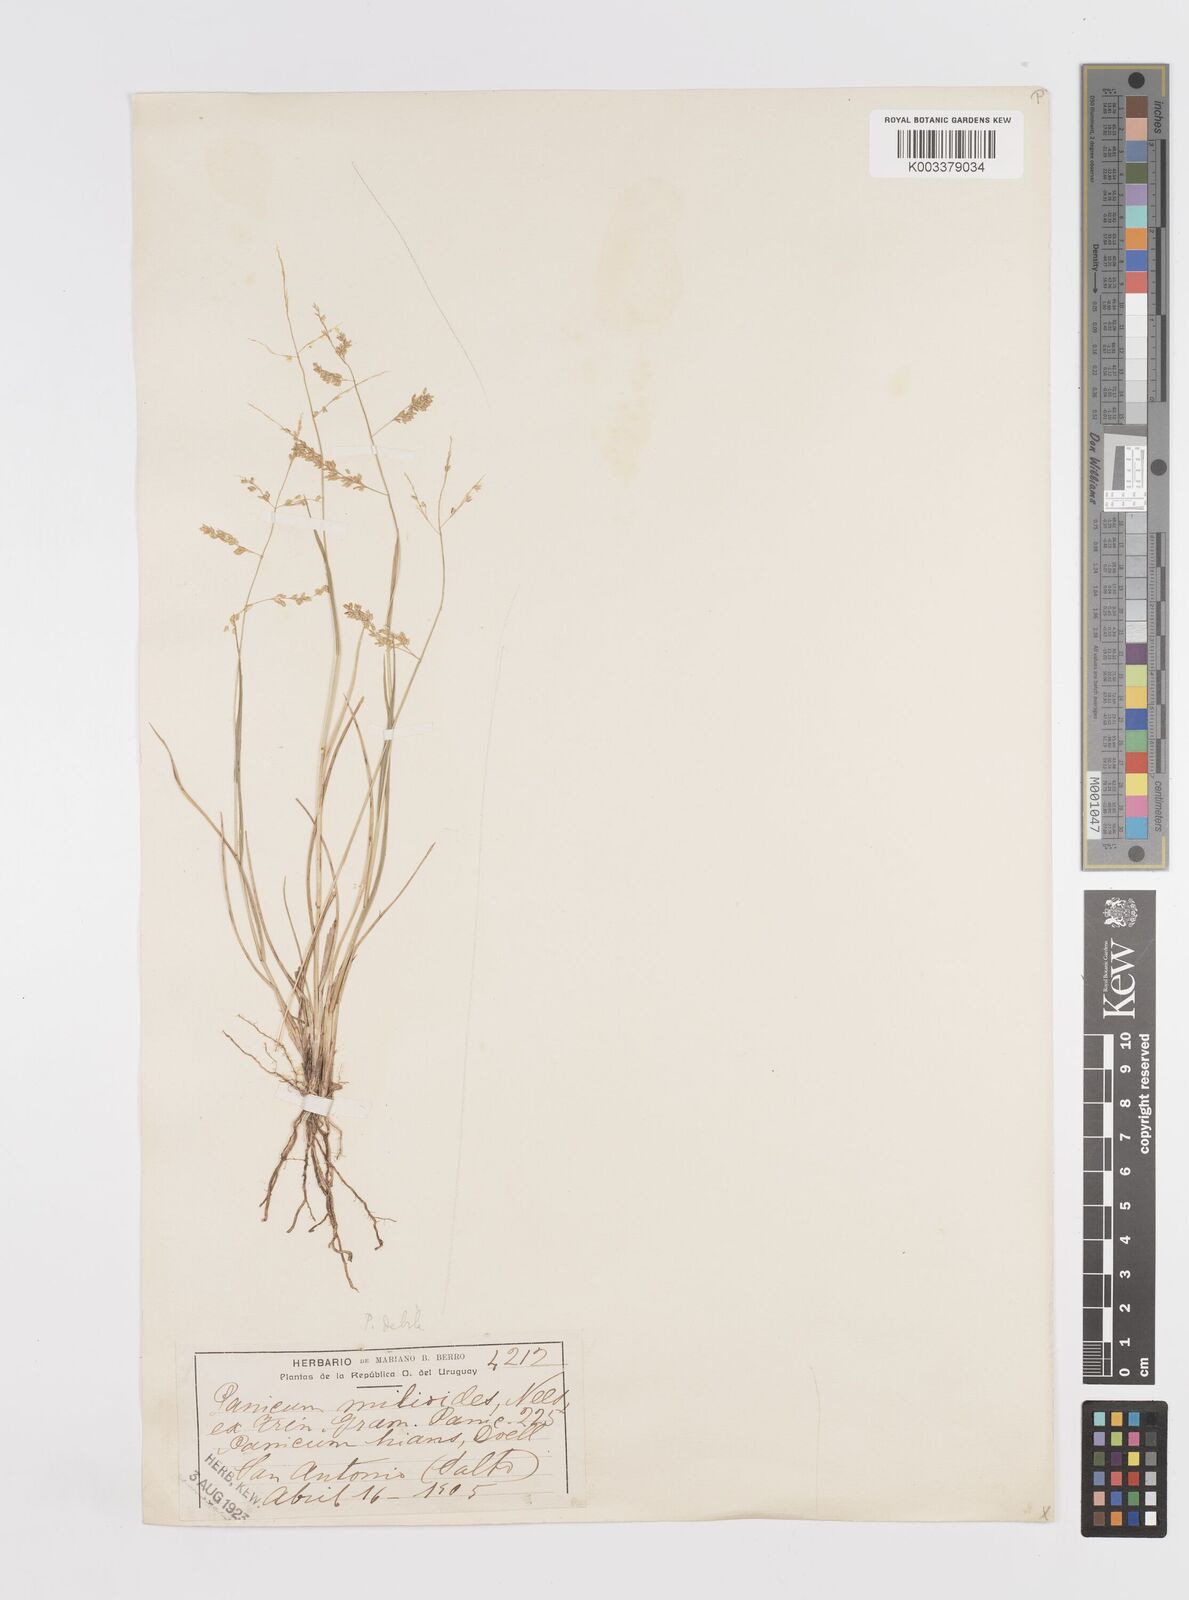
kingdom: Plantae
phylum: Tracheophyta
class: Liliopsida
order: Poales
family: Poaceae
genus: Steinchisma
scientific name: Steinchisma hians
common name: Gaping panic grass
